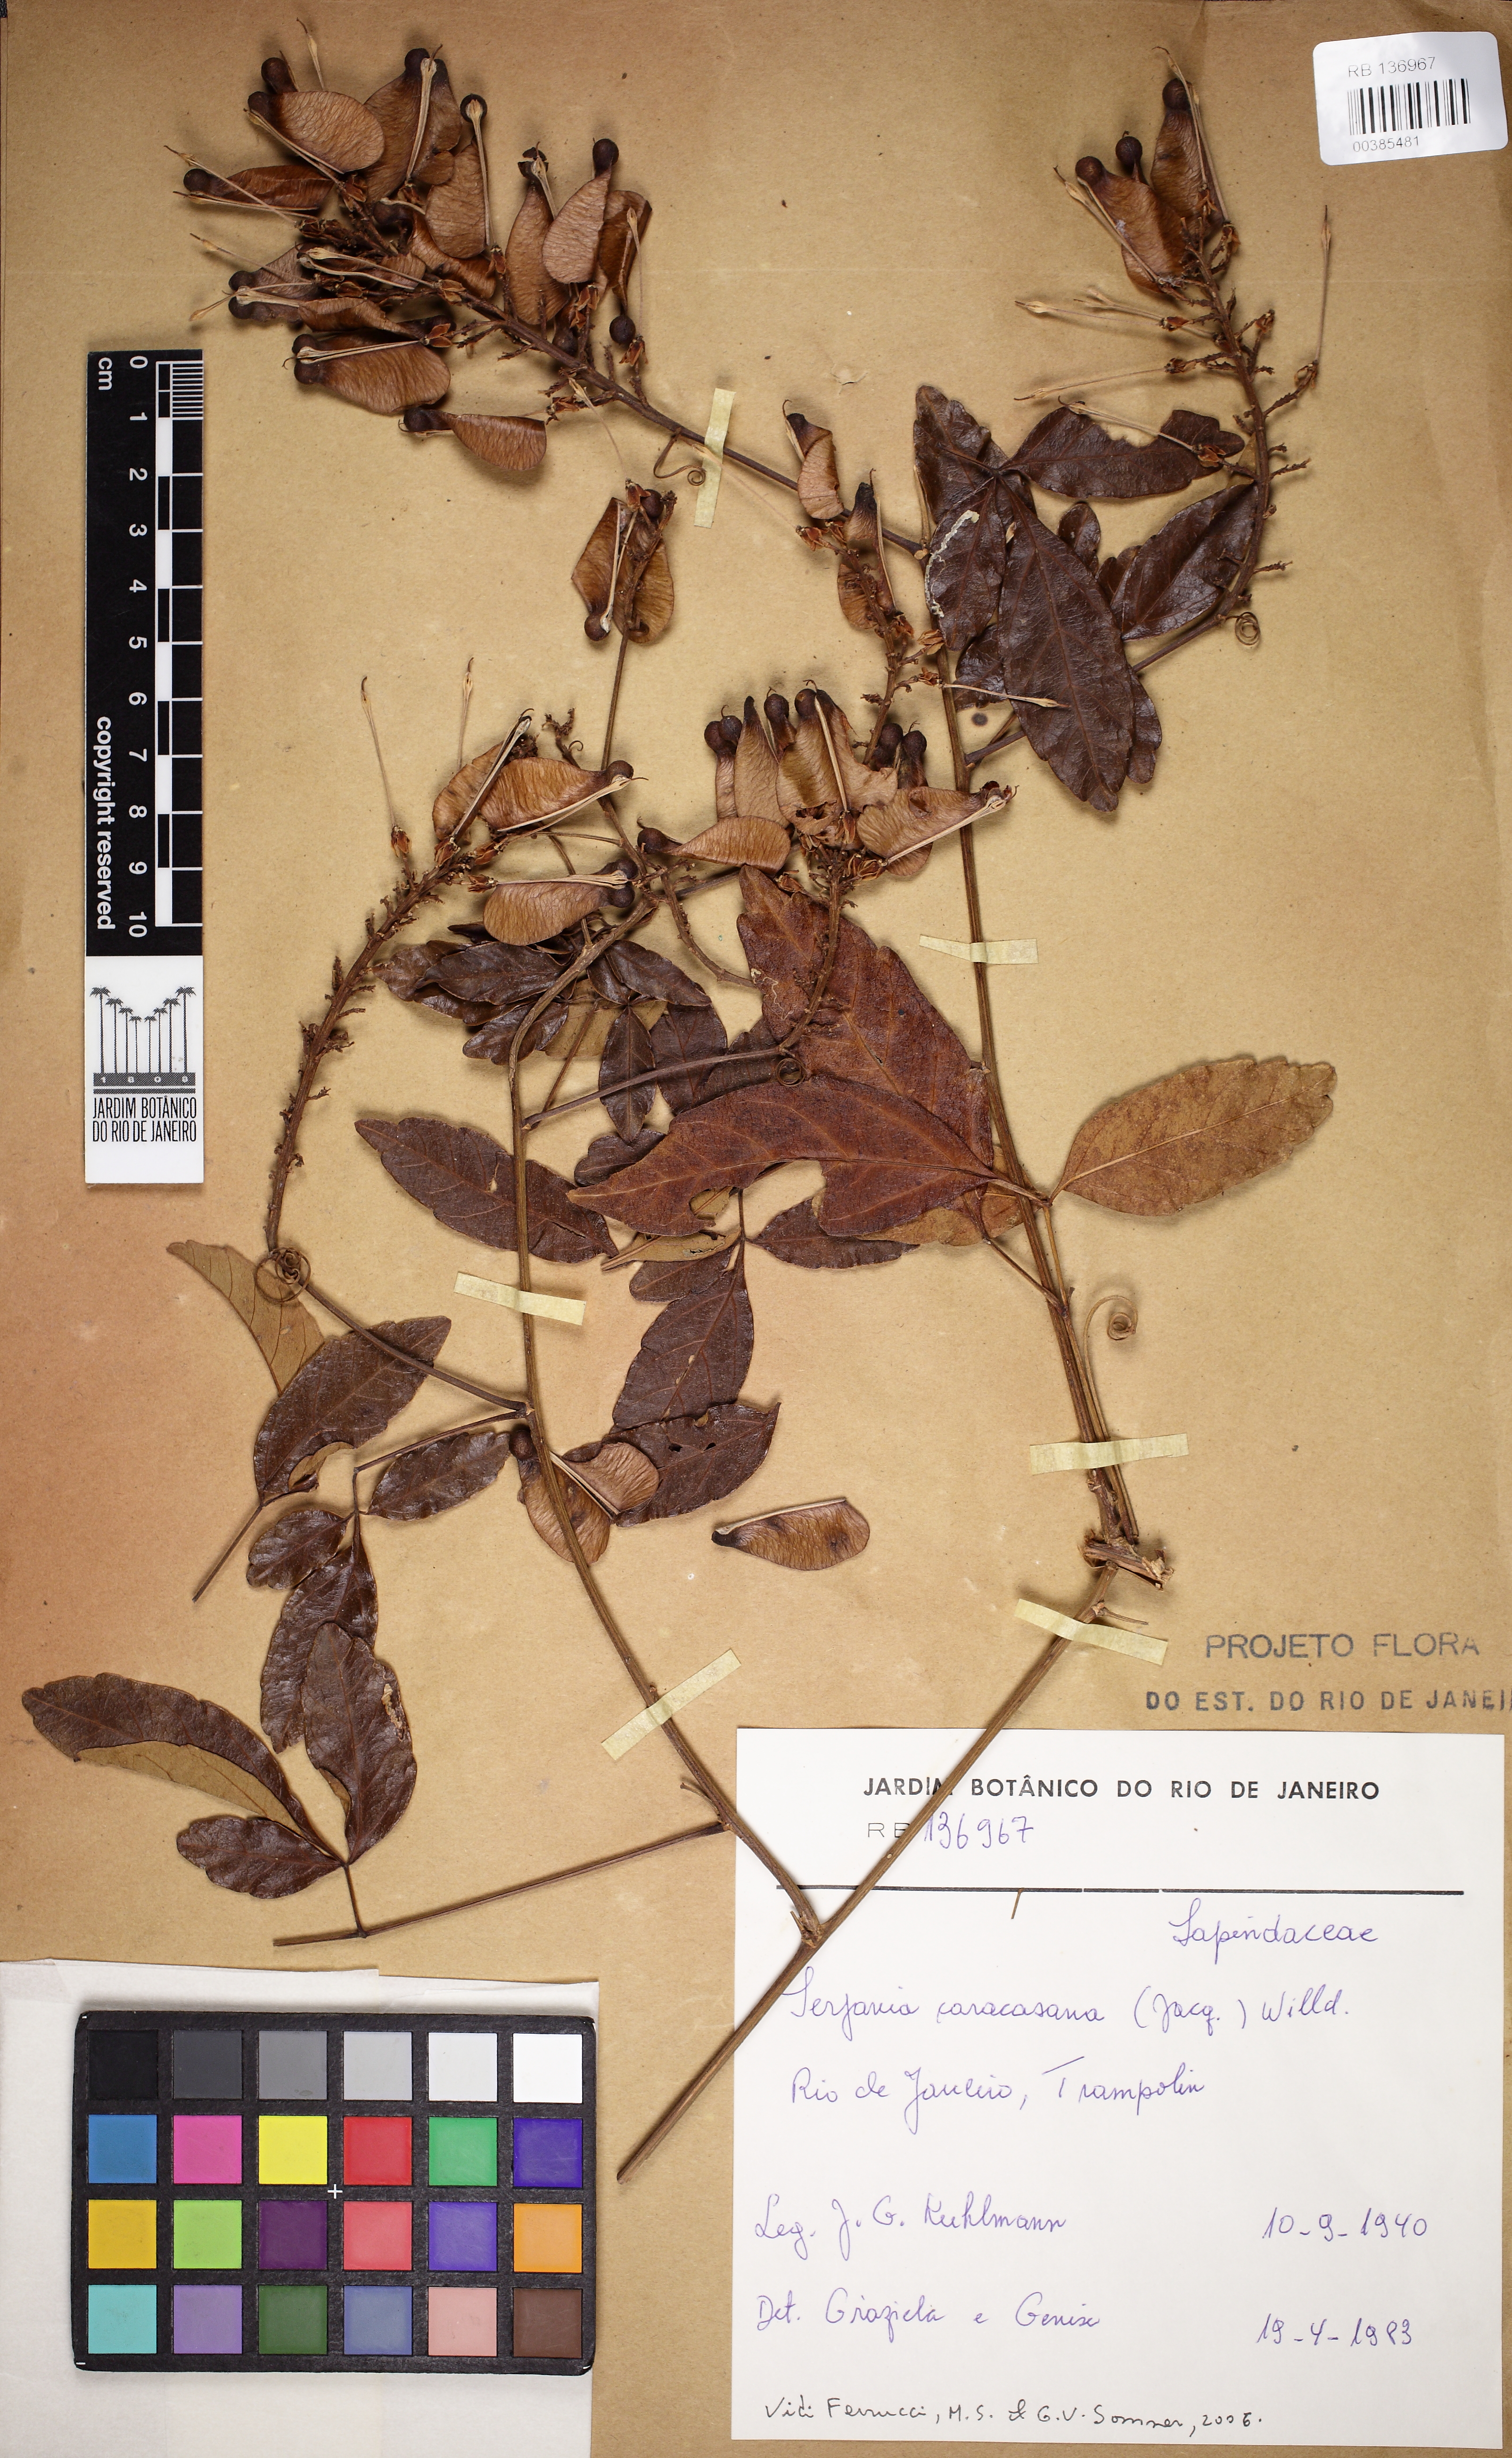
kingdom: Plantae
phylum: Tracheophyta
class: Magnoliopsida
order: Sapindales
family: Sapindaceae
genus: Serjania
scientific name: Serjania caracasana
